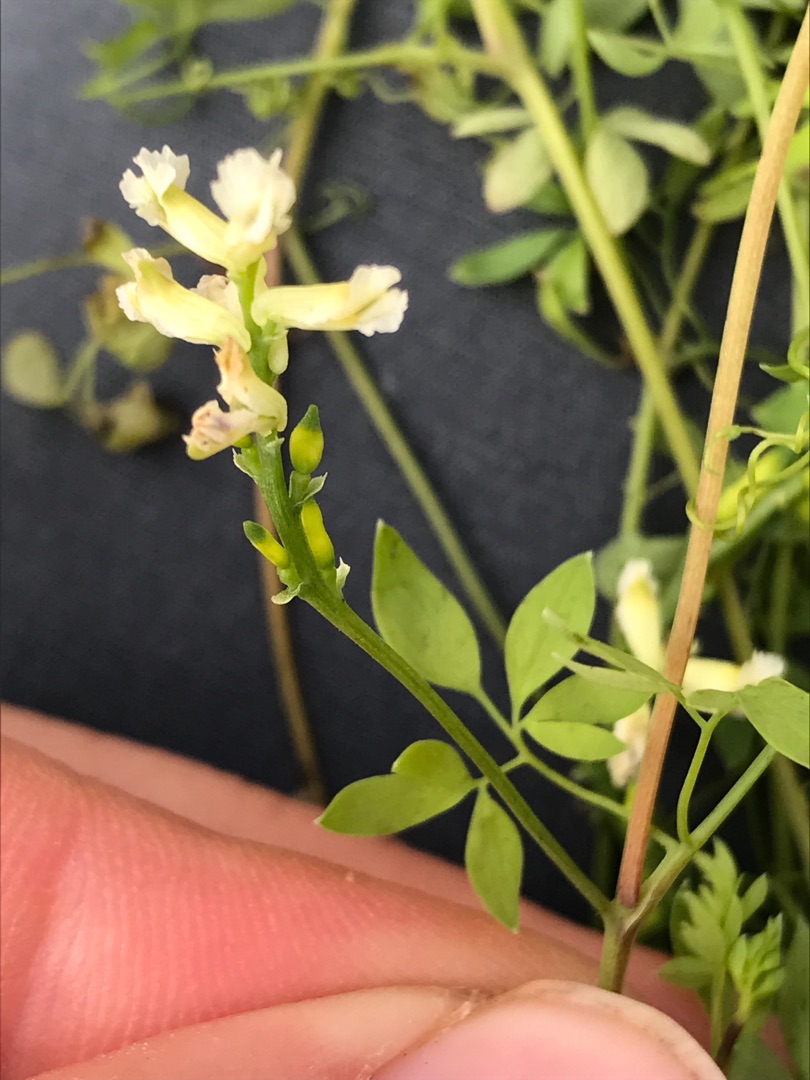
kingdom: Plantae
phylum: Tracheophyta
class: Magnoliopsida
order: Ranunculales
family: Papaveraceae
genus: Ceratocapnos
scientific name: Ceratocapnos claviculata
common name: Klatrende lærkespore
